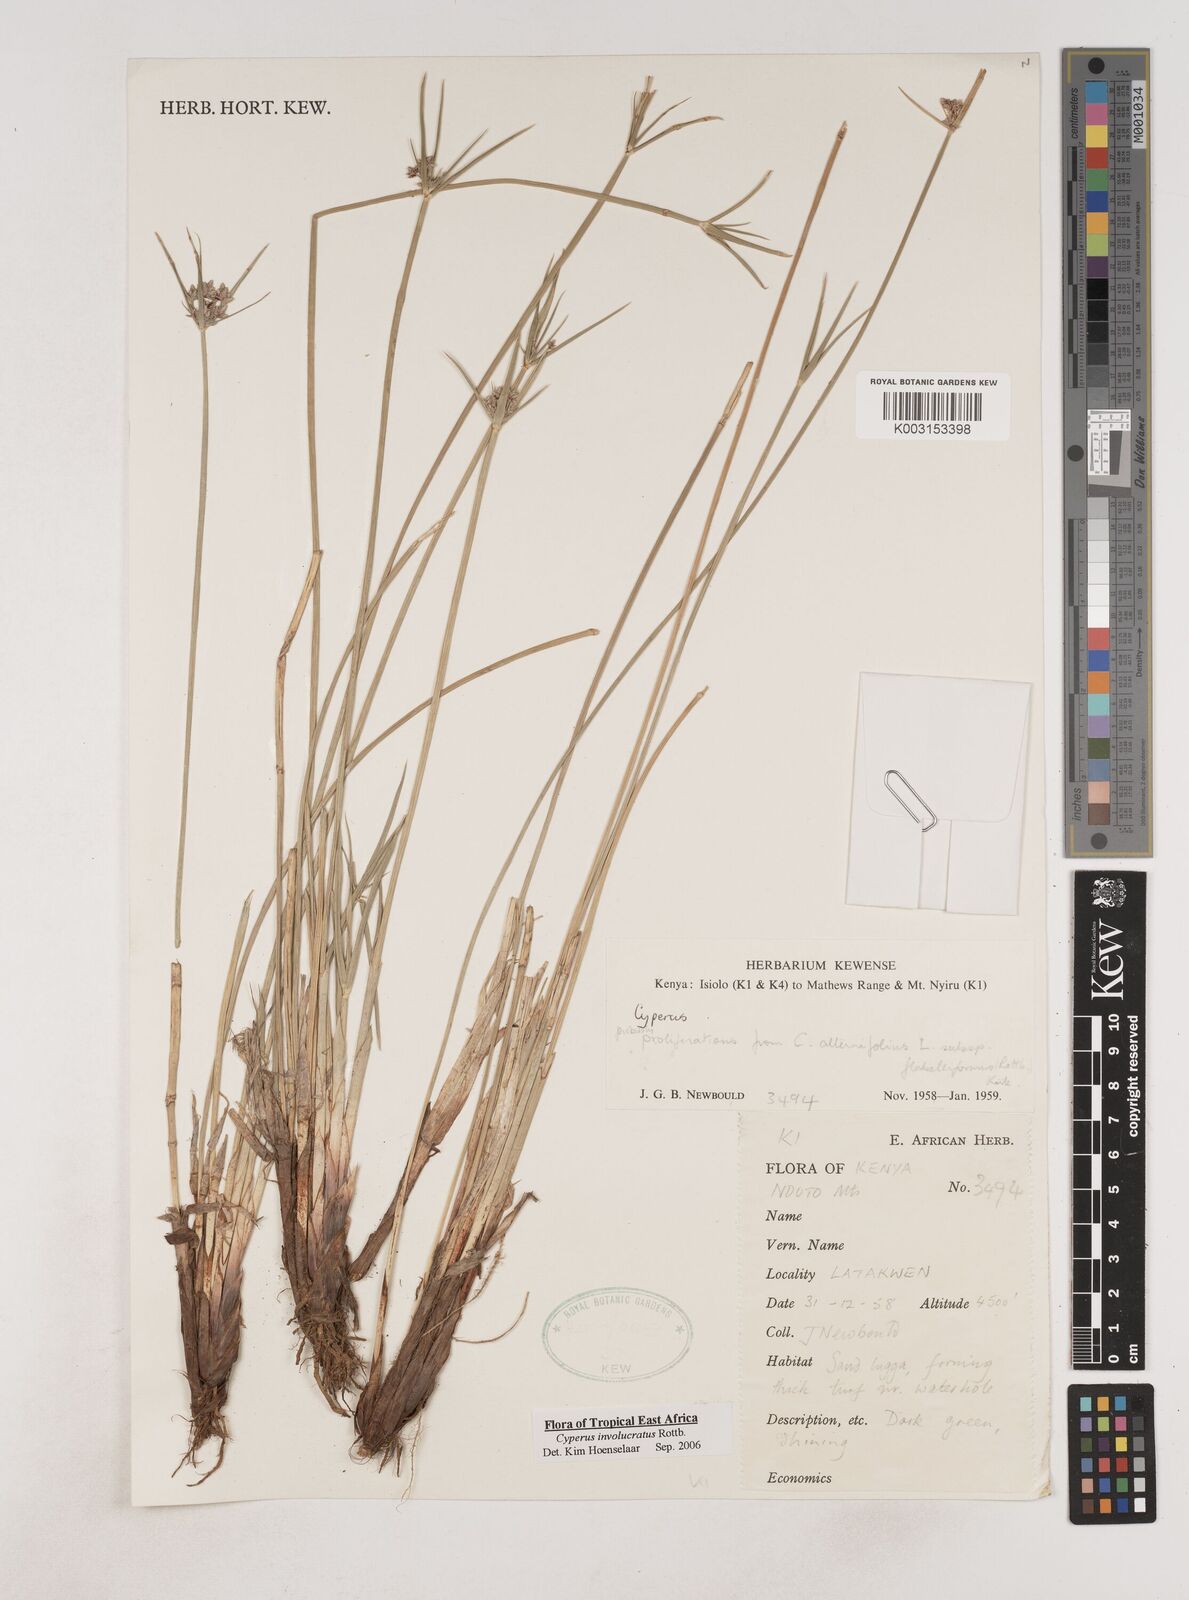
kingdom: Plantae
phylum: Tracheophyta
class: Liliopsida
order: Poales
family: Cyperaceae
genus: Cyperus
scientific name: Cyperus alternifolius
